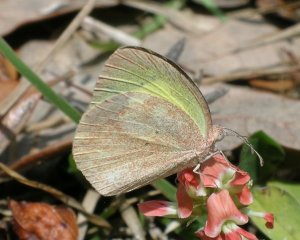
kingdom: Animalia
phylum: Arthropoda
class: Insecta
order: Lepidoptera
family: Pieridae
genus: Eurema
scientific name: Eurema daira
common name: Barred Yellow
